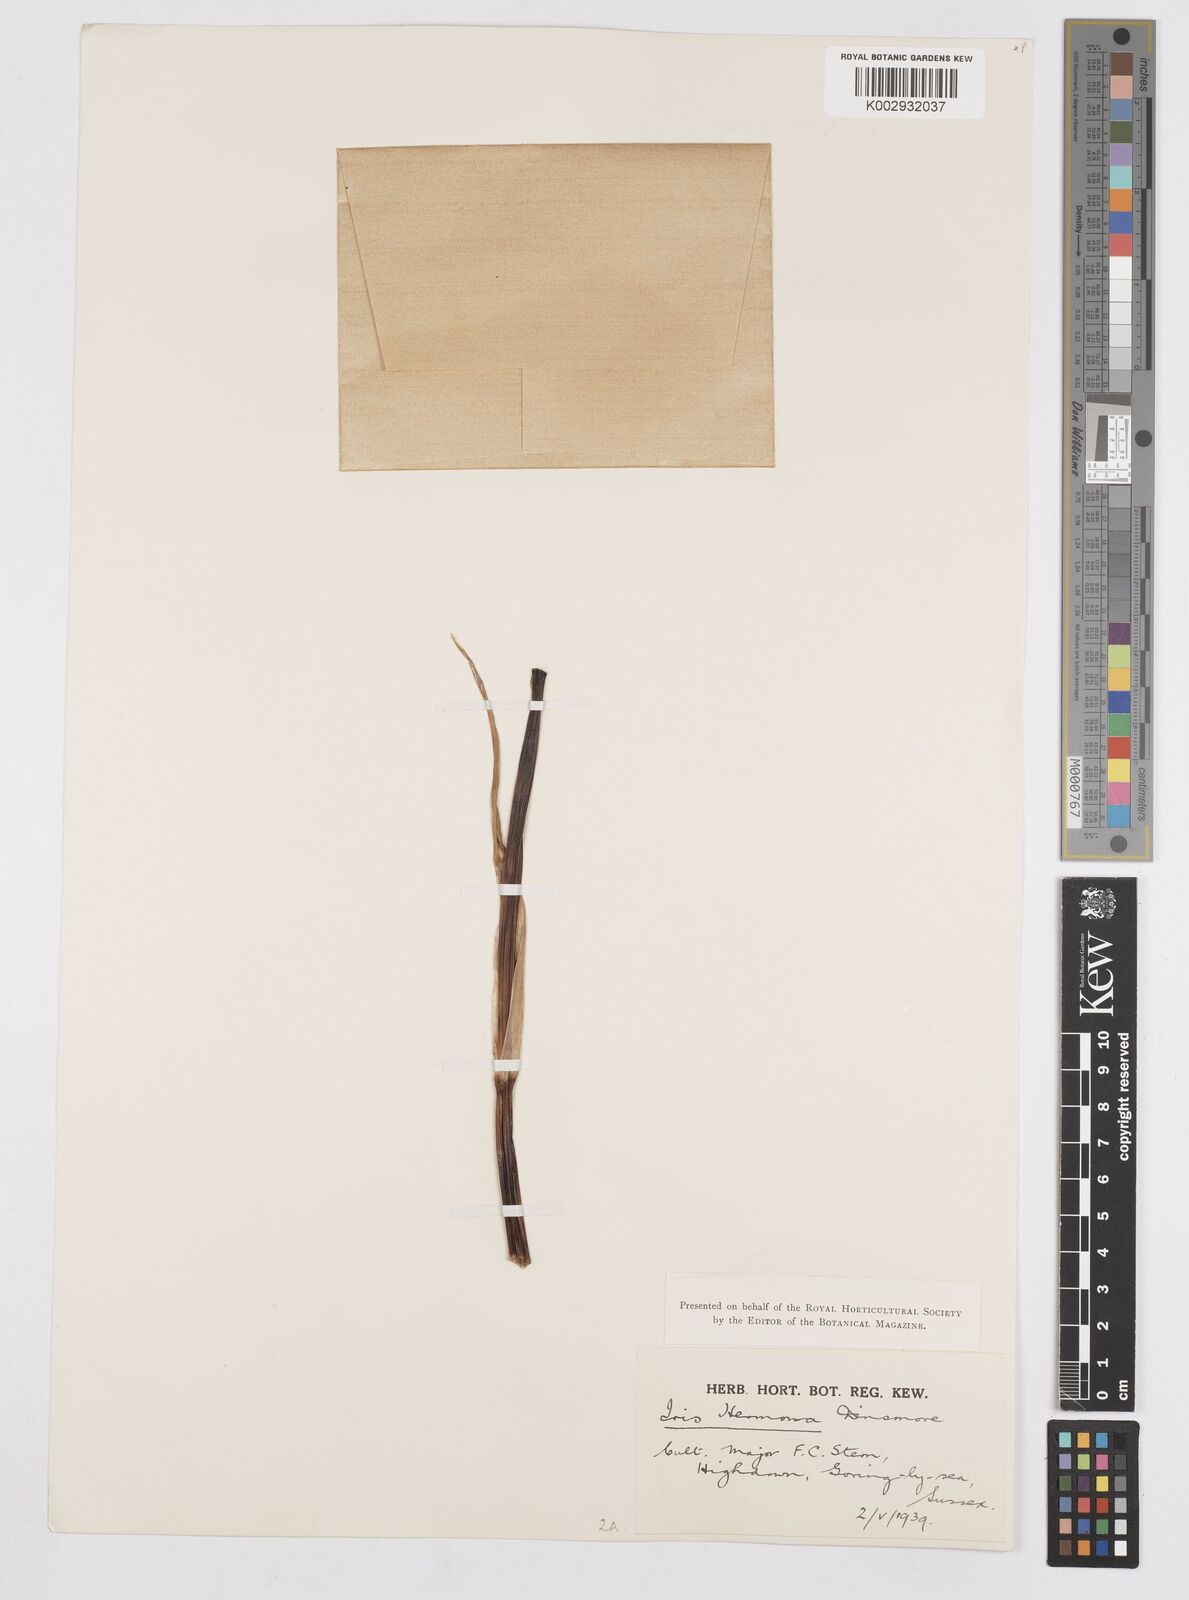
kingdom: Plantae
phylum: Tracheophyta
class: Liliopsida
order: Asparagales
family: Iridaceae
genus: Iris
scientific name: Iris hermona
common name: Golan iris
